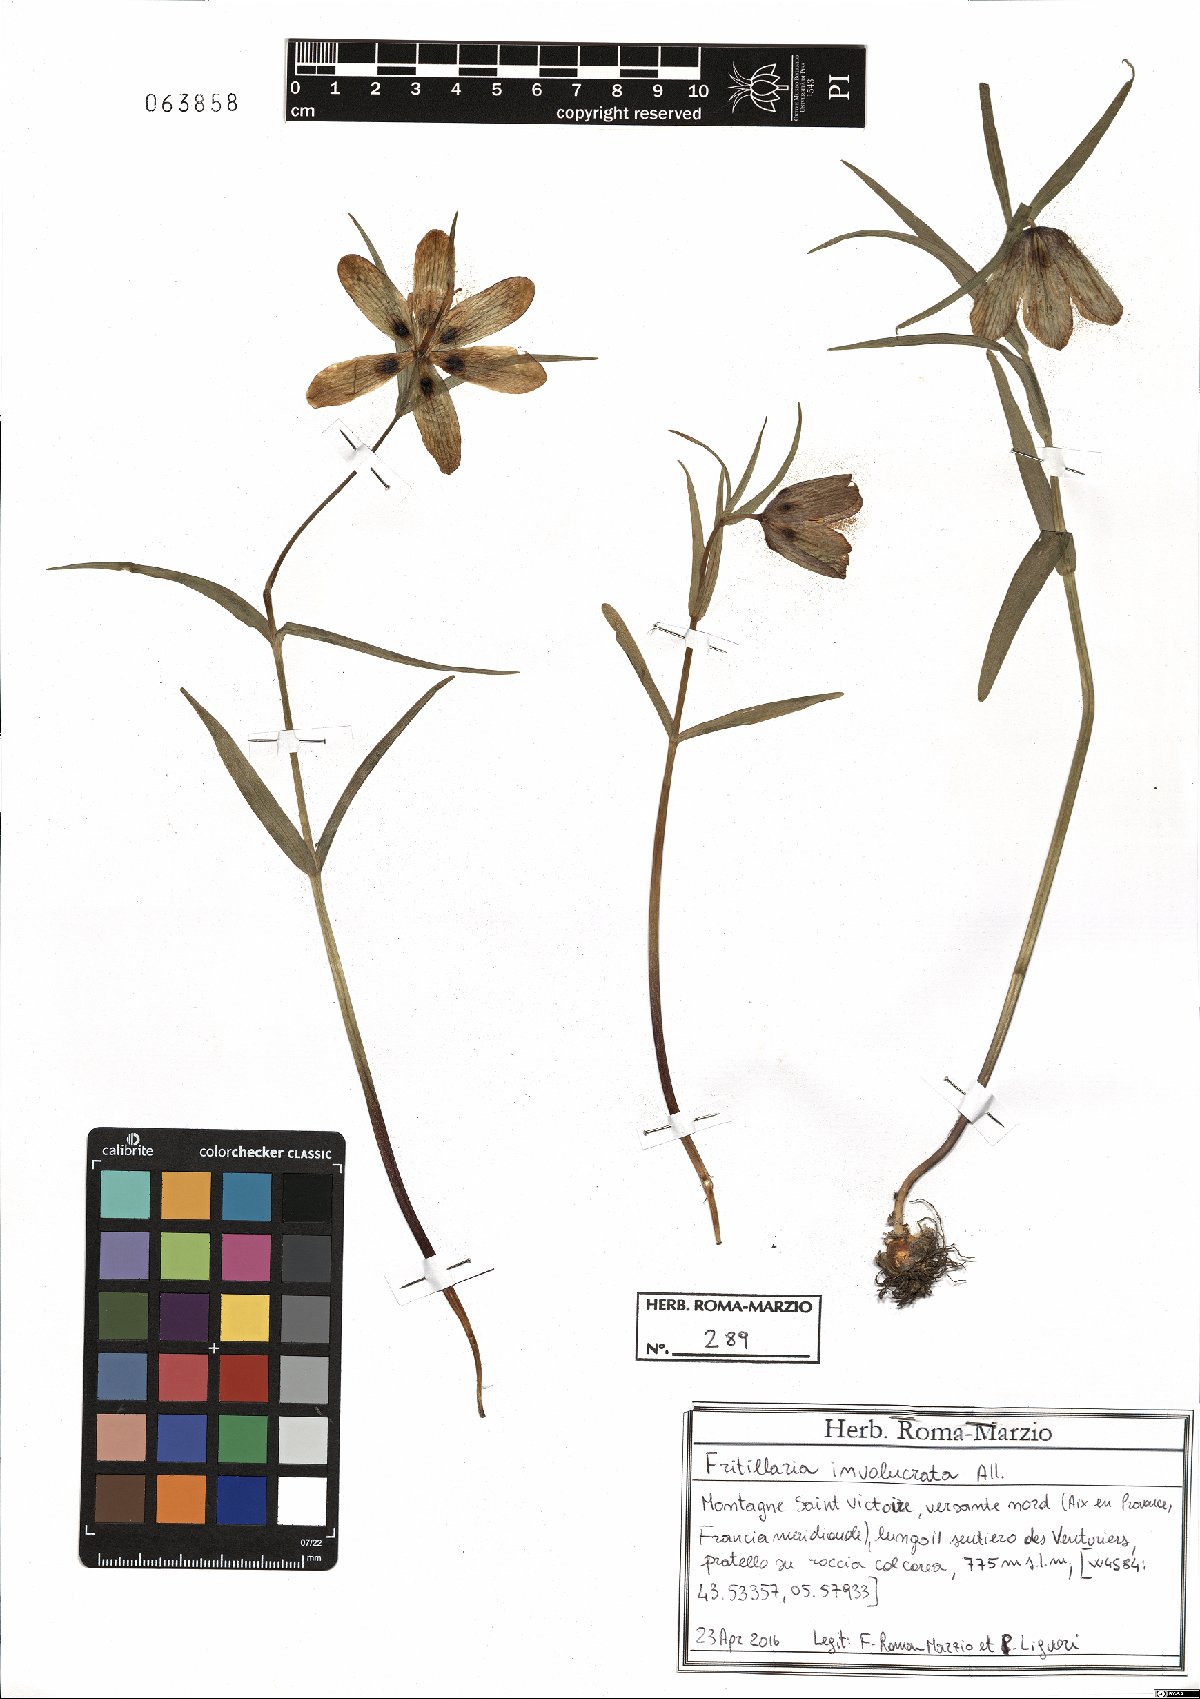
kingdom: Plantae
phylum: Tracheophyta
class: Liliopsida
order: Liliales
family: Liliaceae
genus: Fritillaria
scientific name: Fritillaria involucrata
